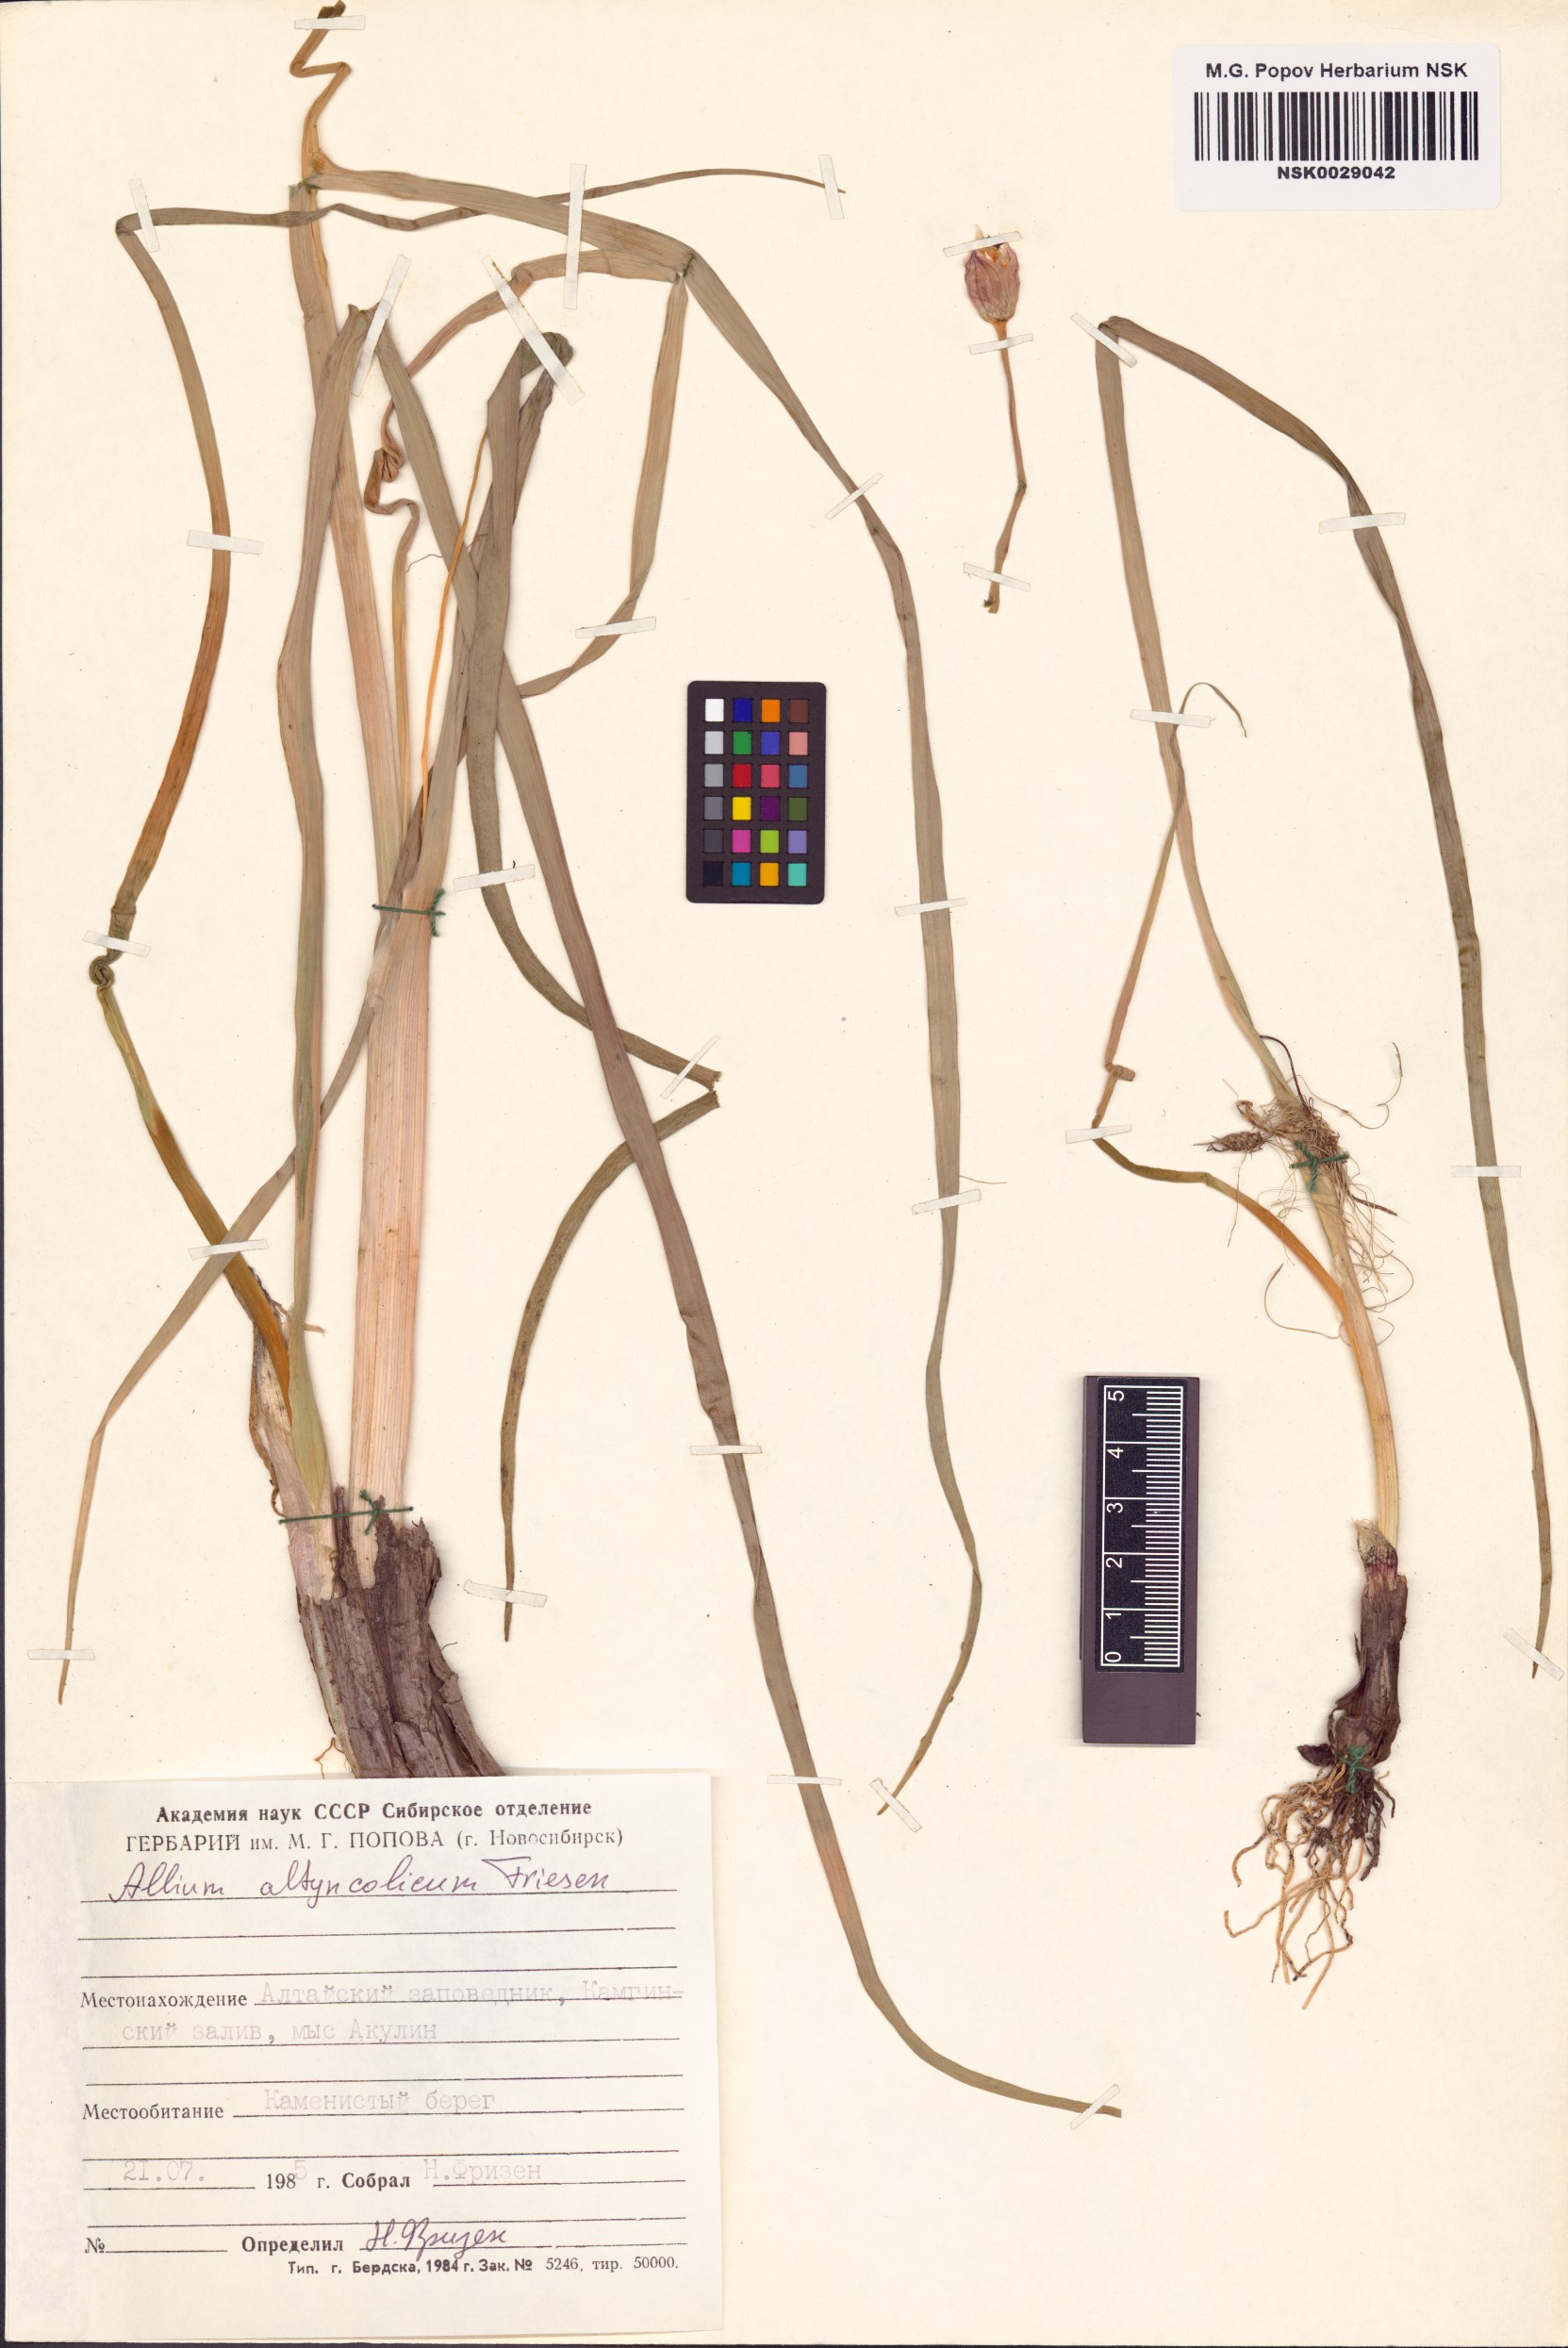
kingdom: Plantae
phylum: Tracheophyta
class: Liliopsida
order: Asparagales
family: Amaryllidaceae
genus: Allium
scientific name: Allium altyncolicum
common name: Altynkol chive
